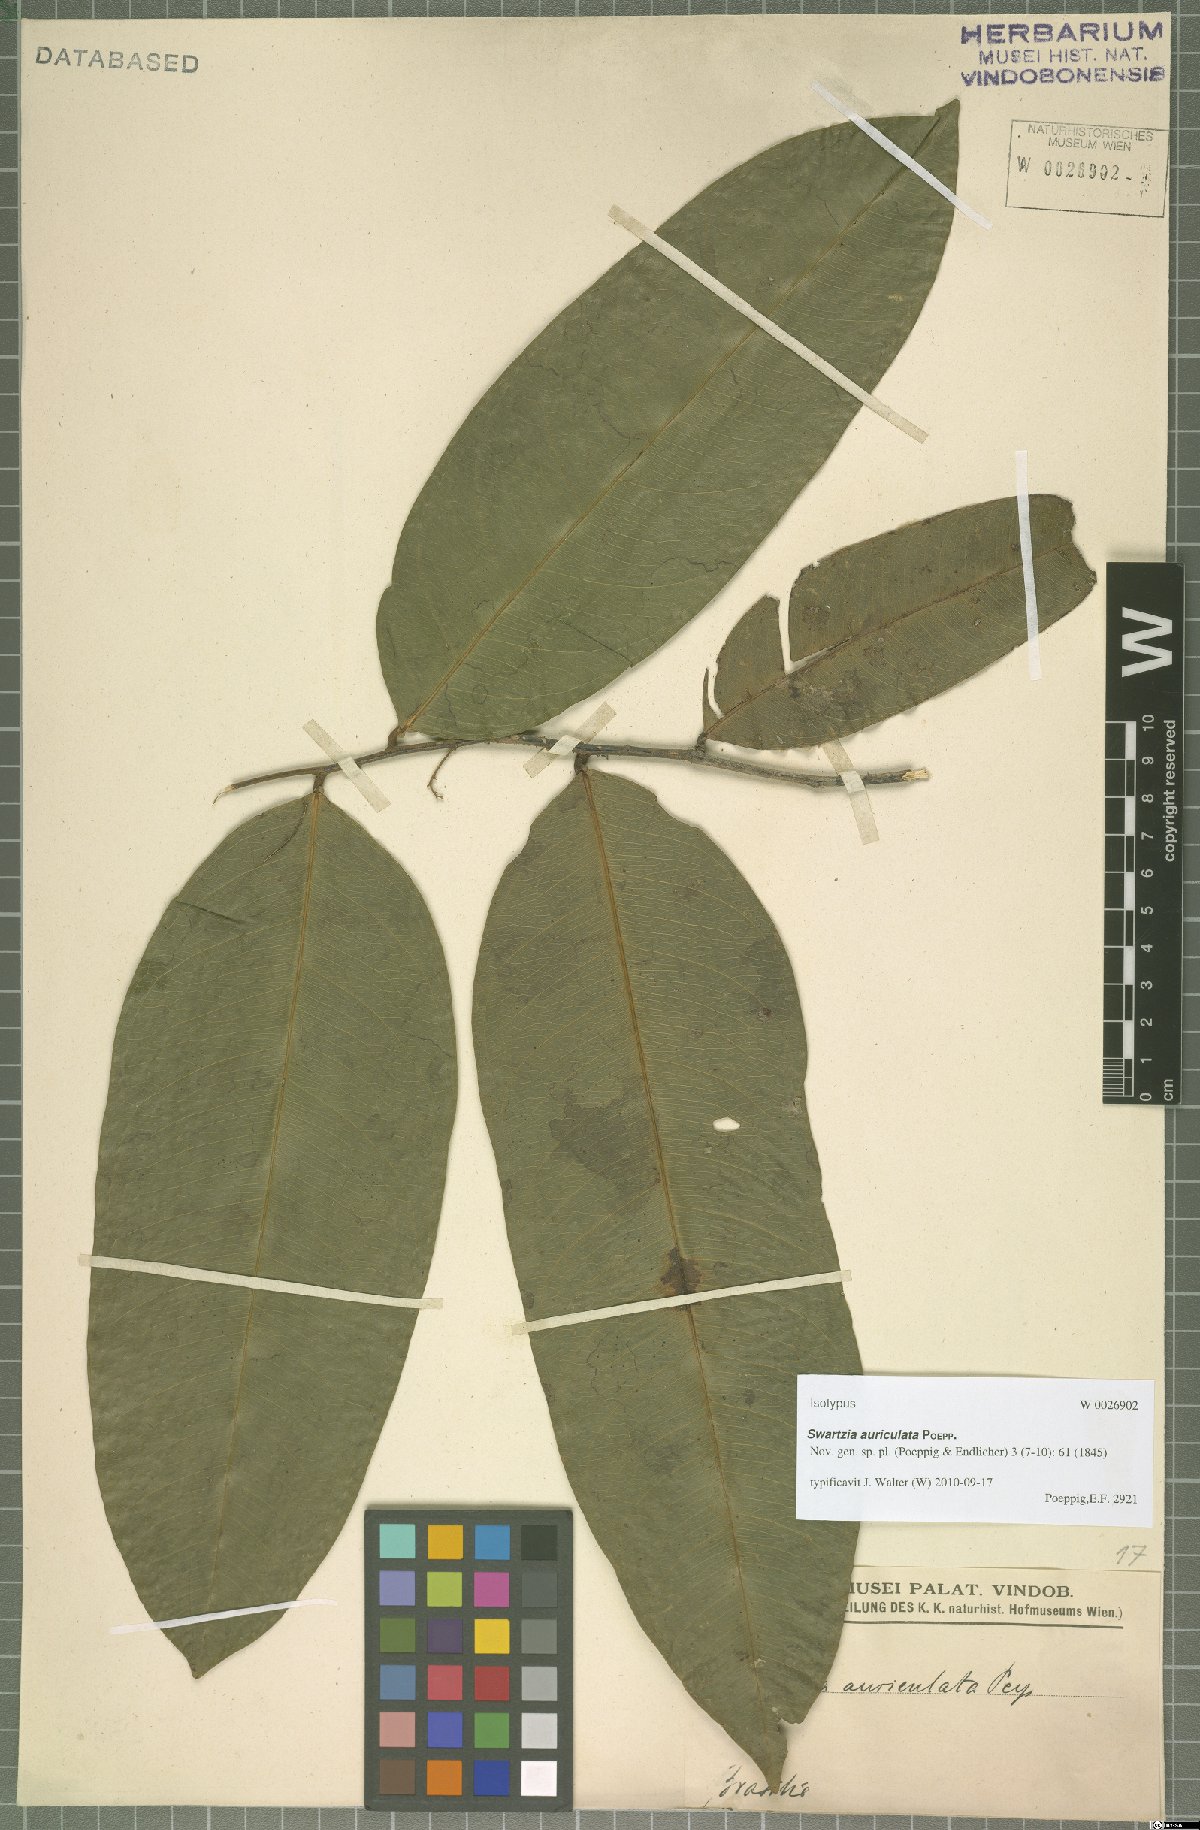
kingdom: Plantae
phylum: Tracheophyta
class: Magnoliopsida
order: Fabales
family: Fabaceae
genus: Swartzia
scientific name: Swartzia auriculata
